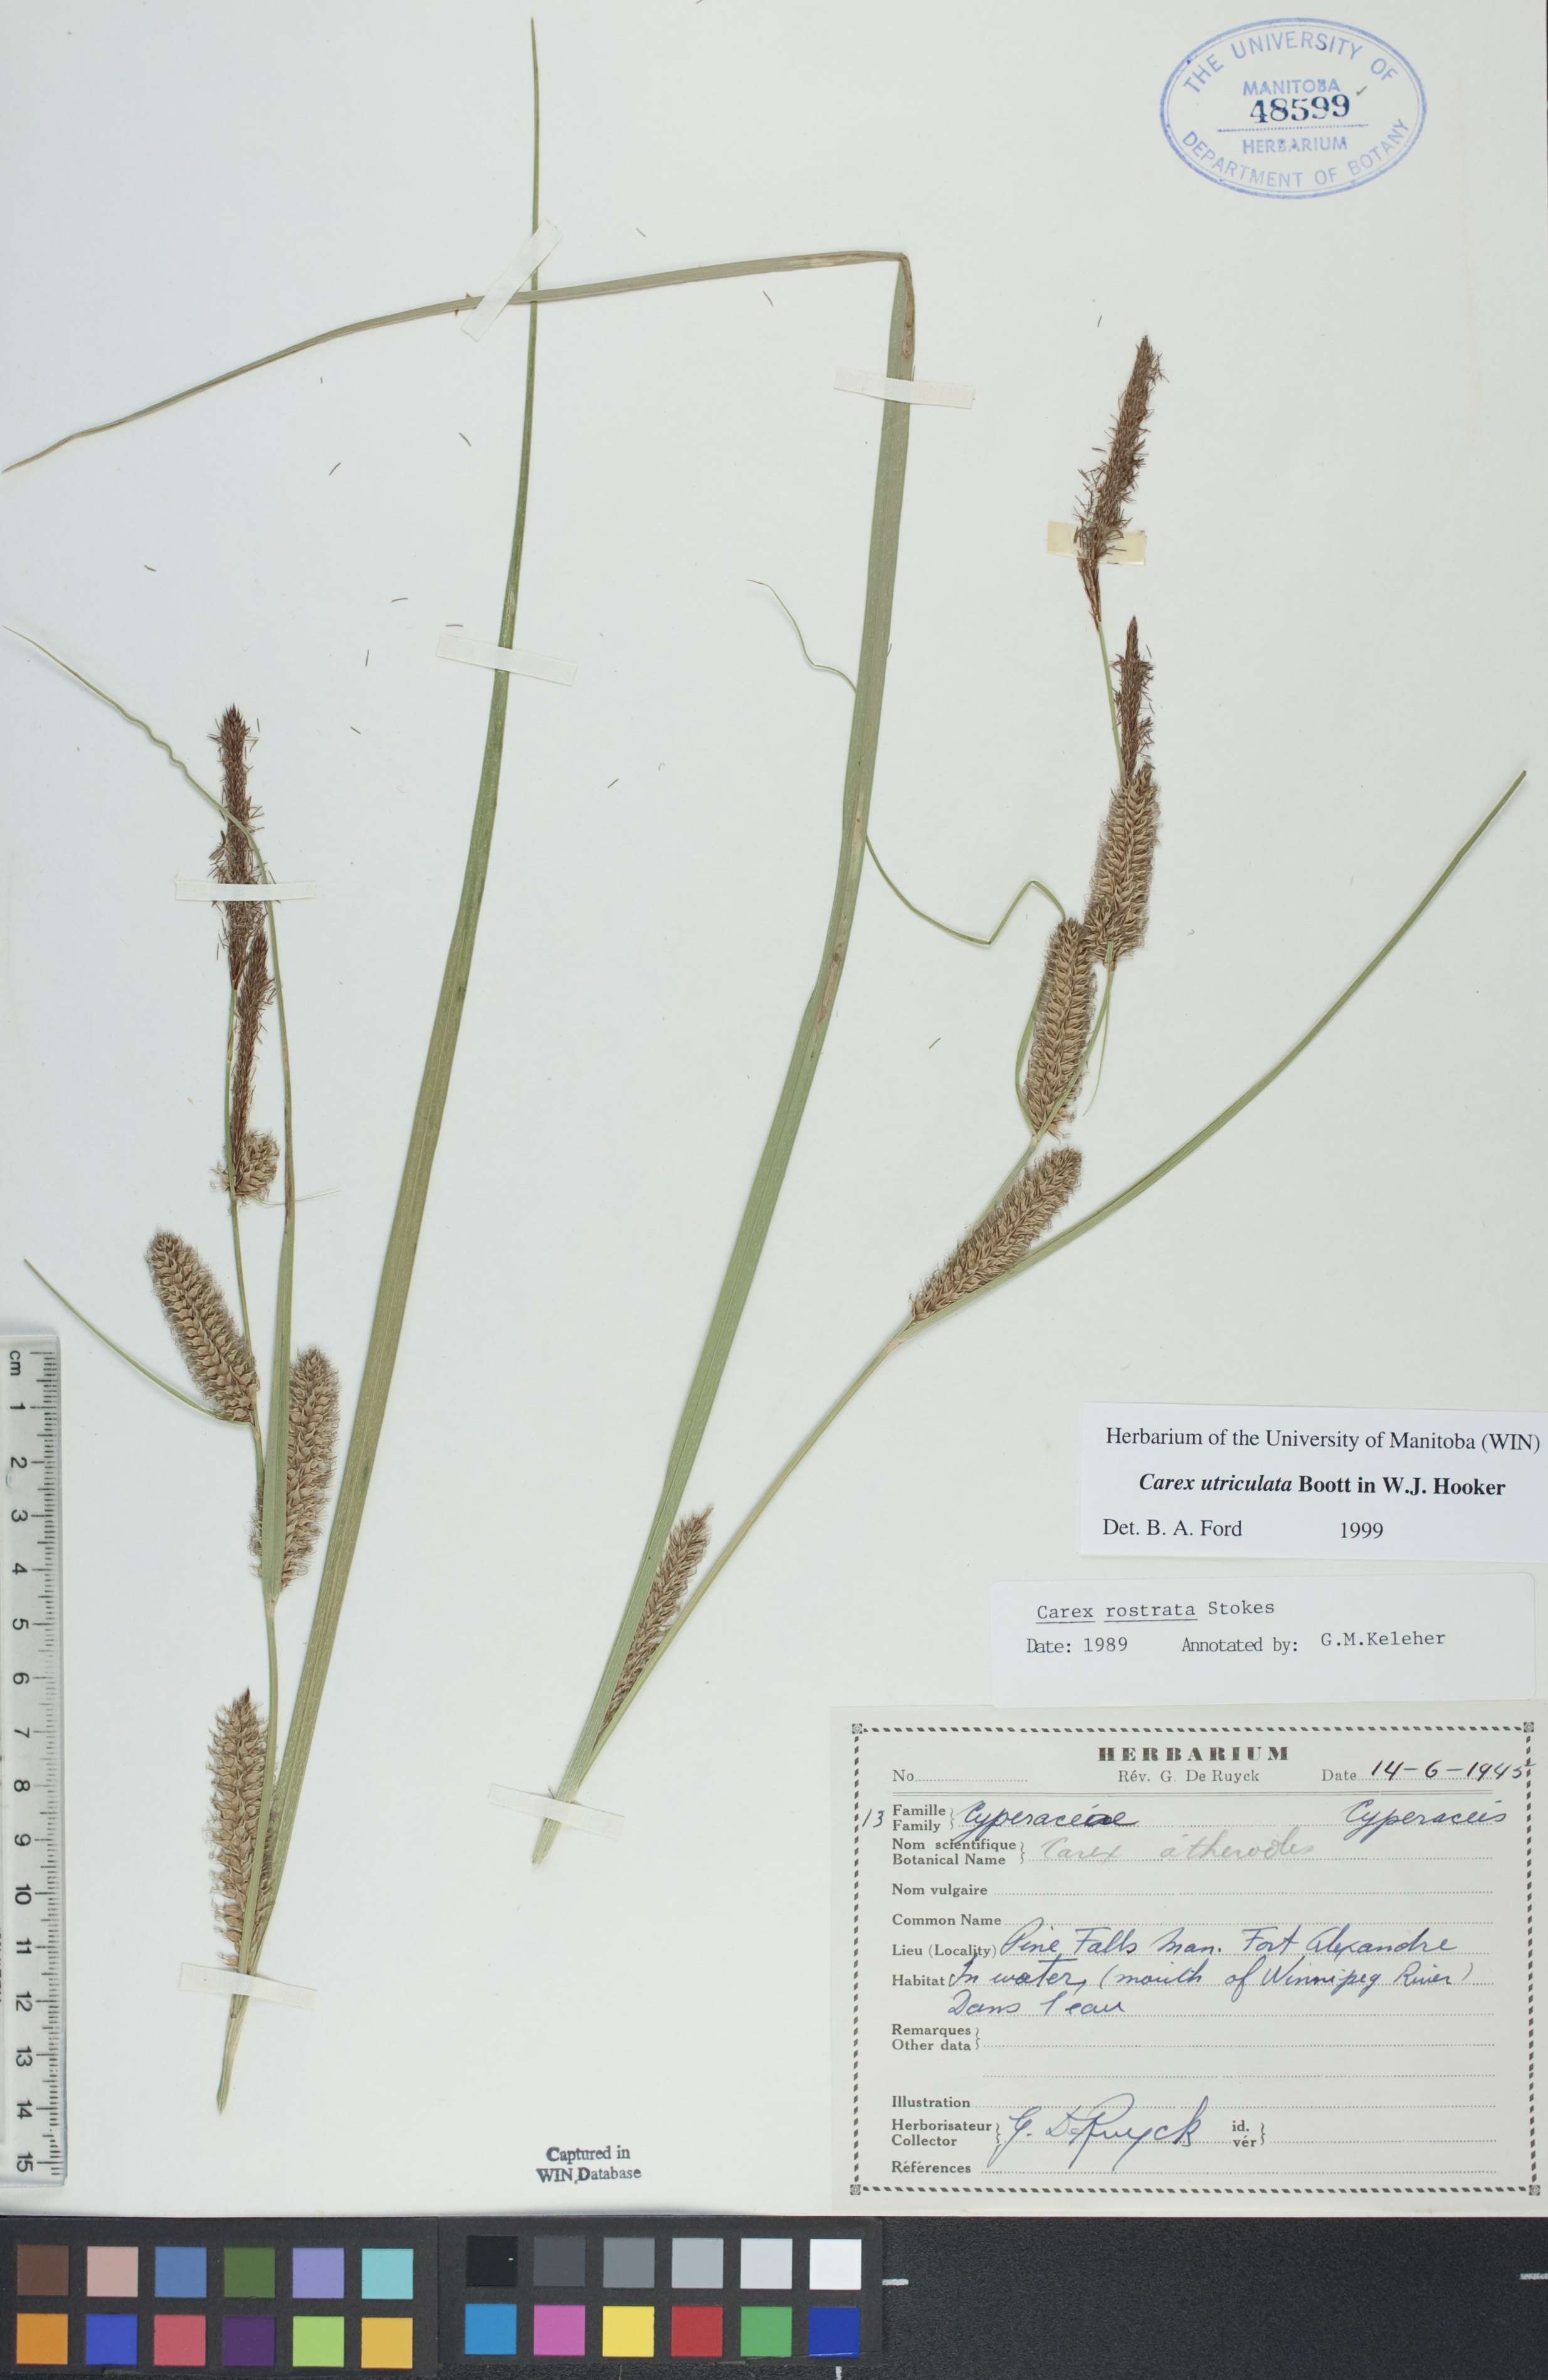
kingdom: Plantae
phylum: Tracheophyta
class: Liliopsida
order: Poales
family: Cyperaceae
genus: Carex
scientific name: Carex utriculata
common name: Beaked sedge
